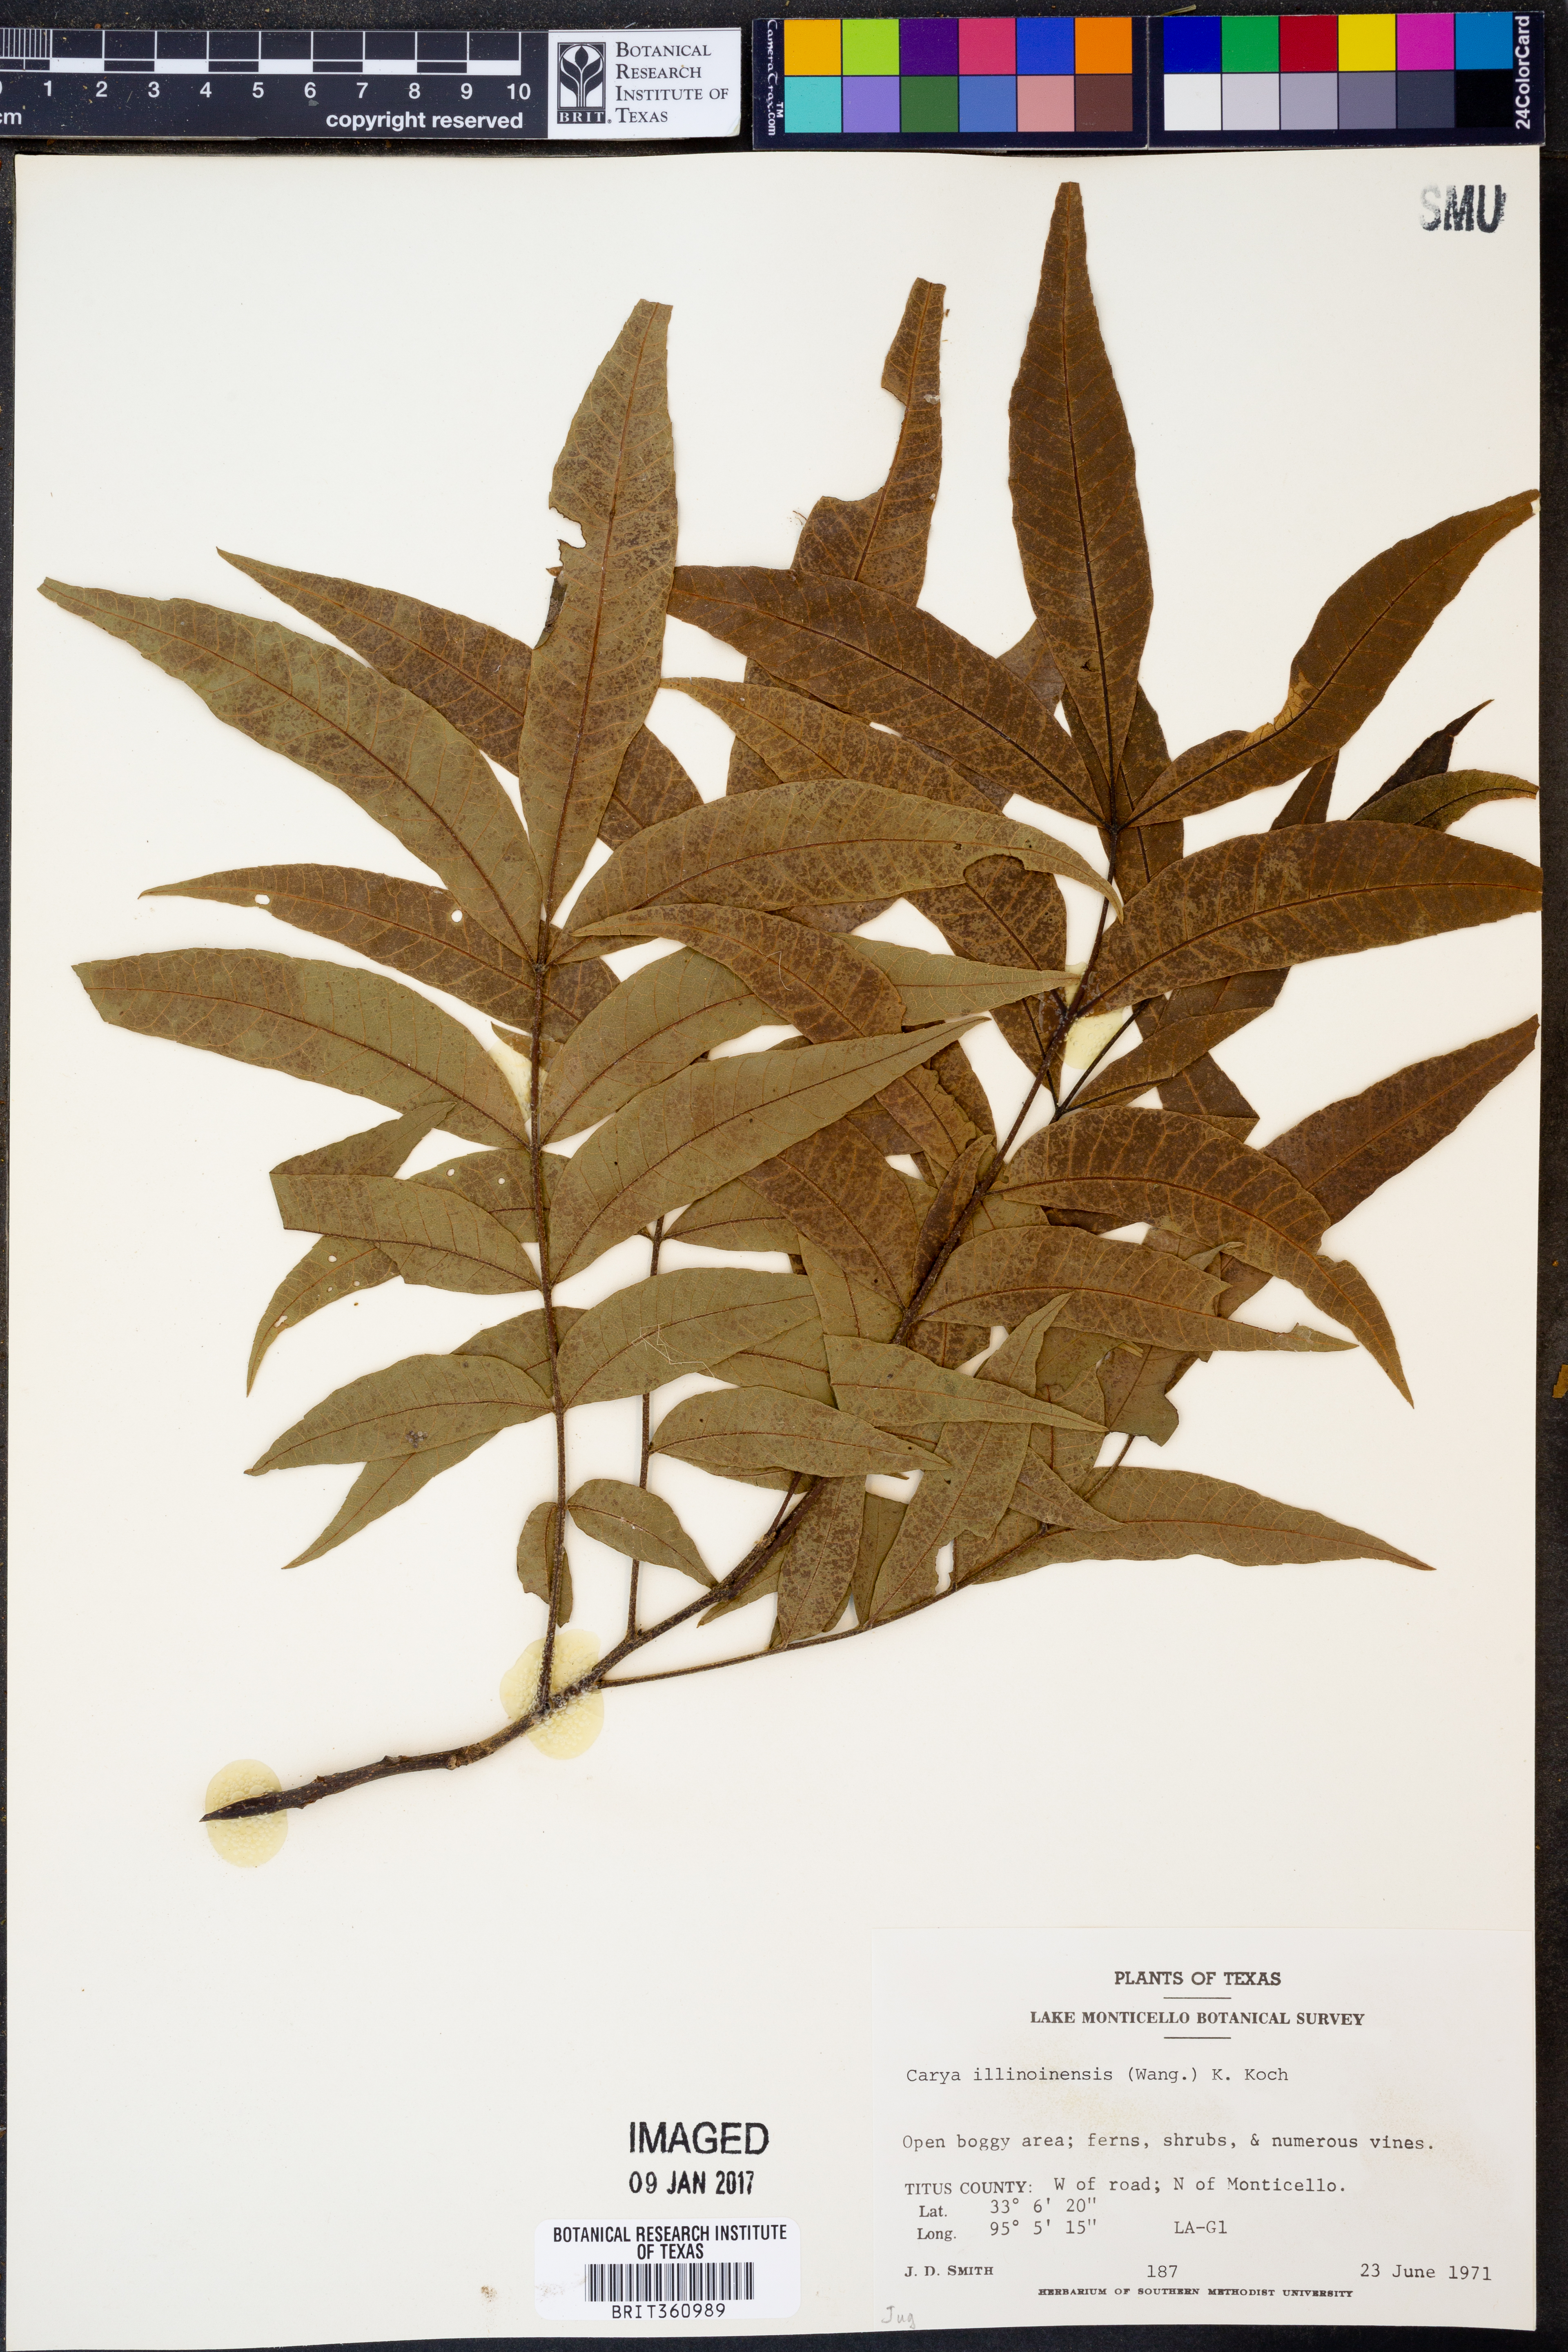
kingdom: Plantae
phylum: Tracheophyta
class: Magnoliopsida
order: Fagales
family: Juglandaceae
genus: Carya
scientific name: Carya illinoinensis
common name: Pecan
